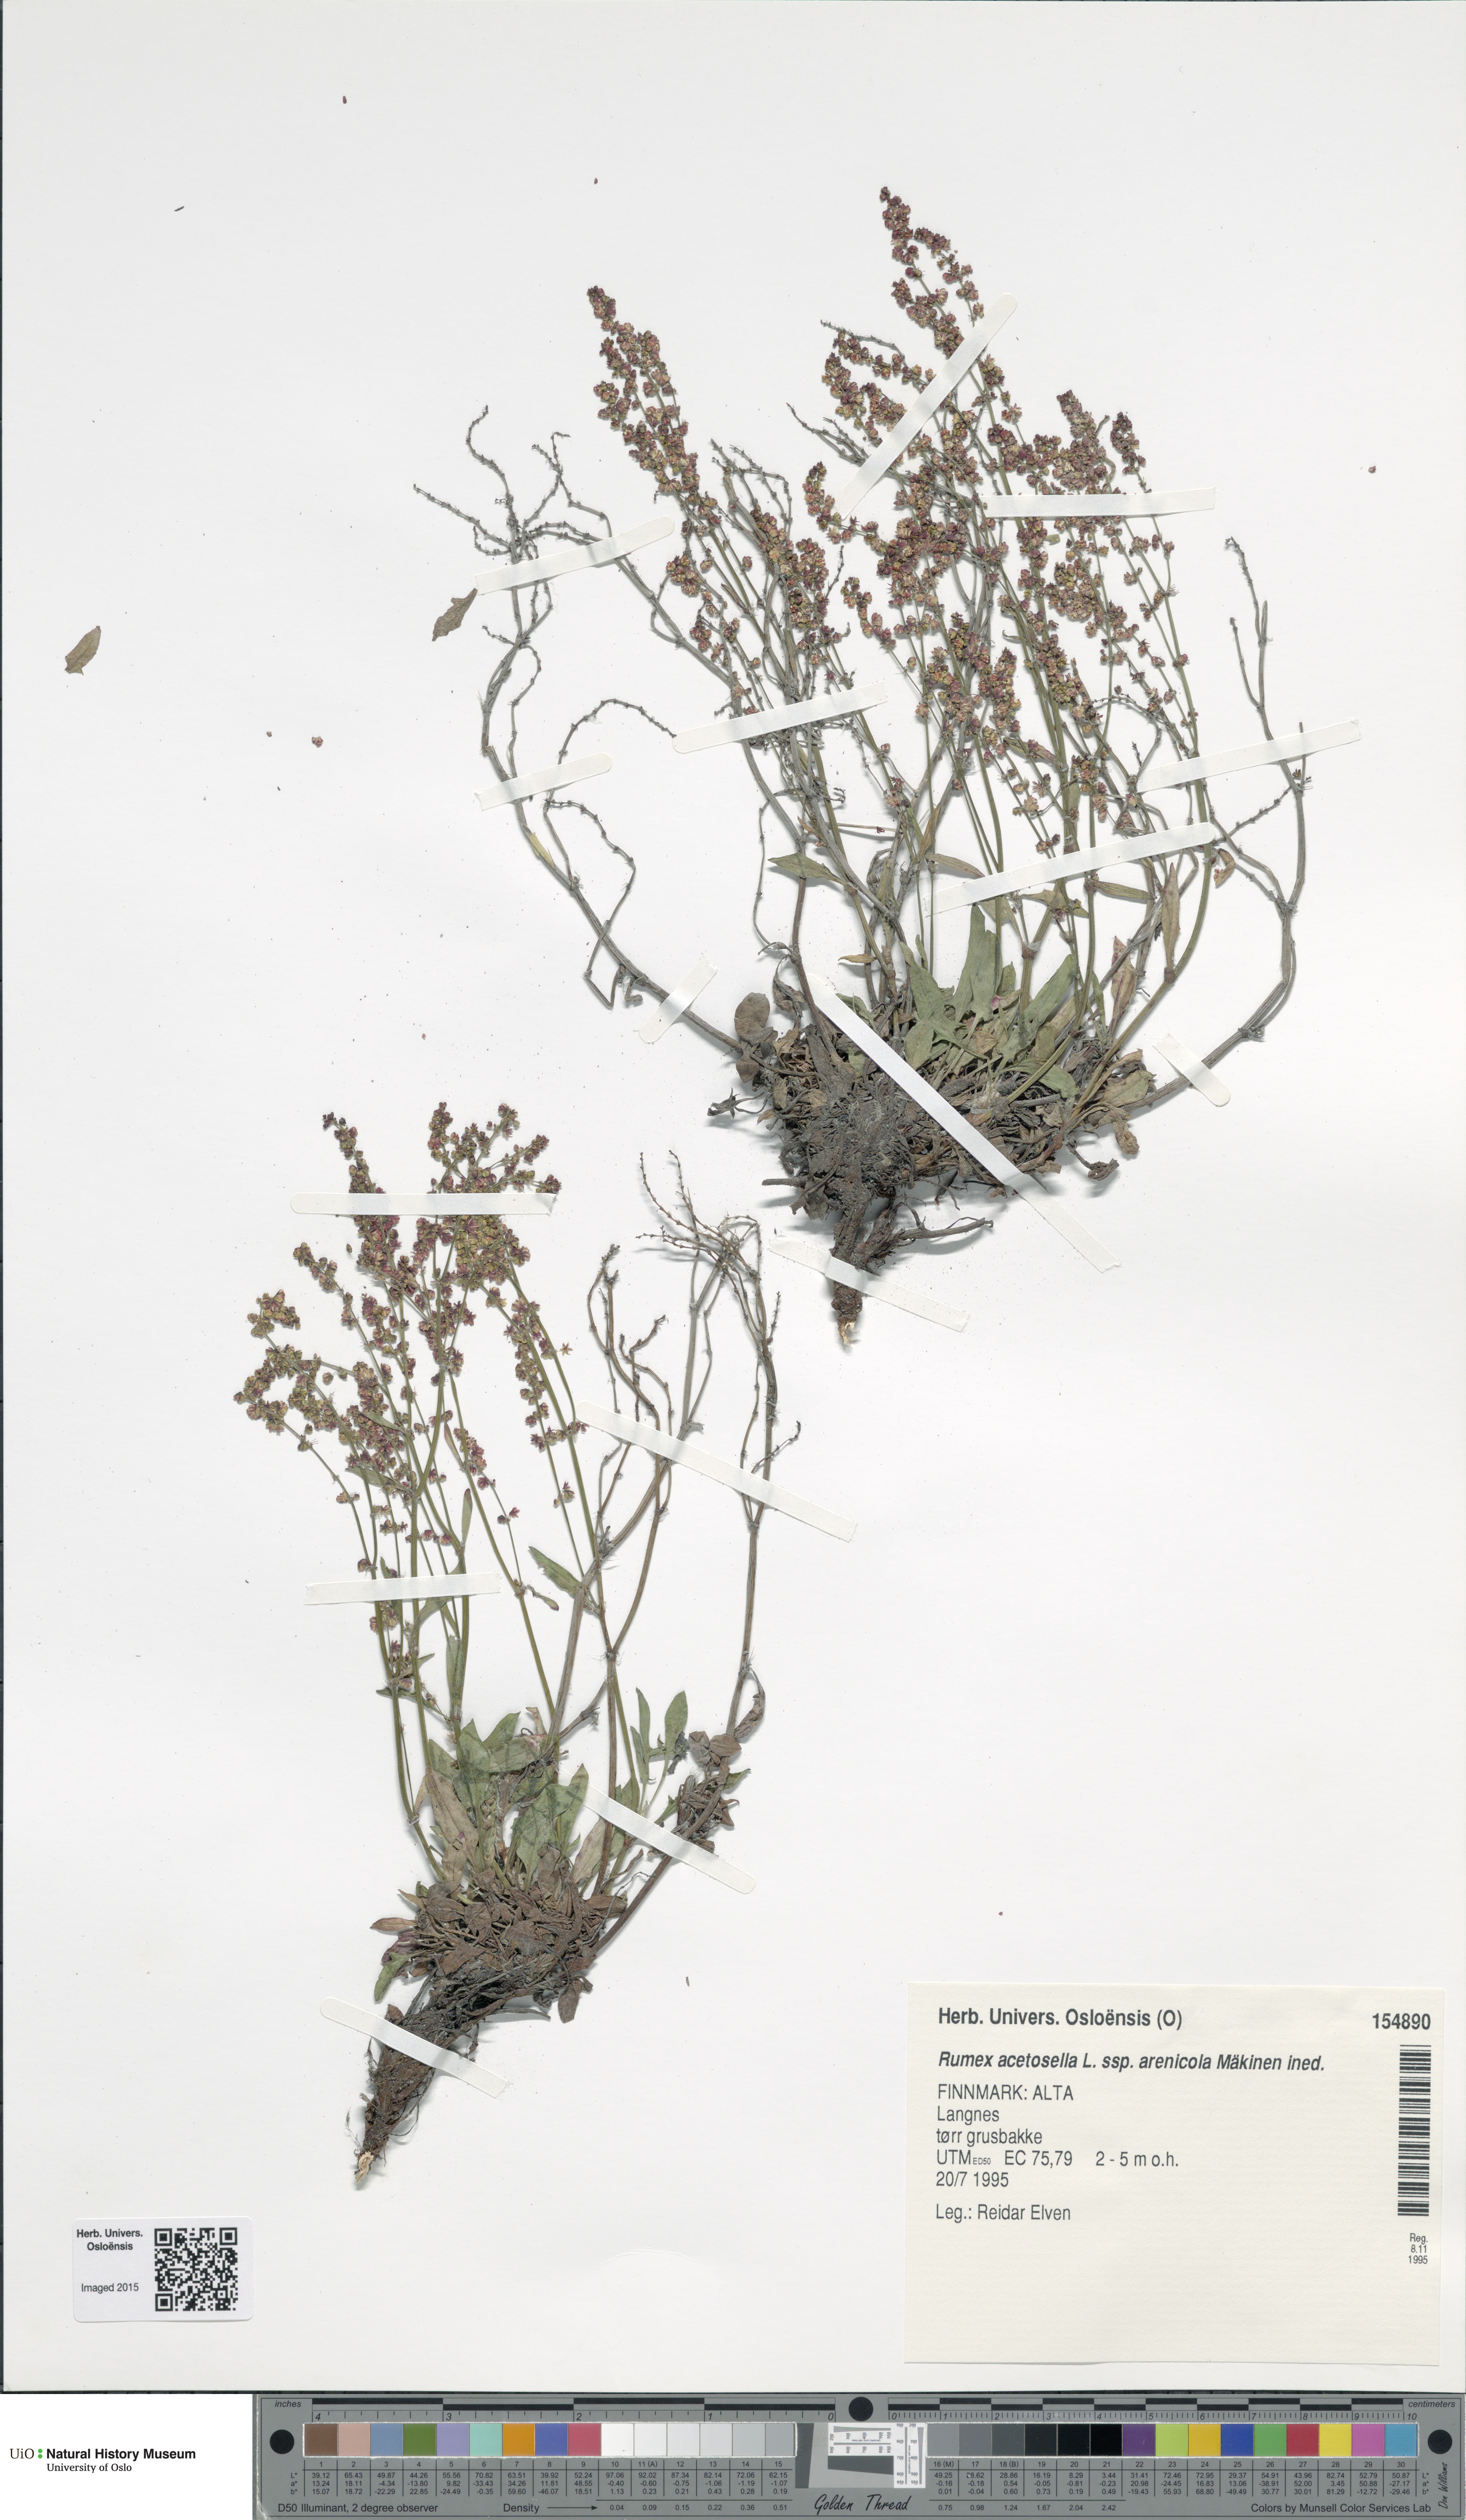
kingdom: Plantae
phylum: Tracheophyta
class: Magnoliopsida
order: Caryophyllales
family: Polygonaceae
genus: Rumex
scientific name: Rumex acetosella
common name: Common sheep sorrel
